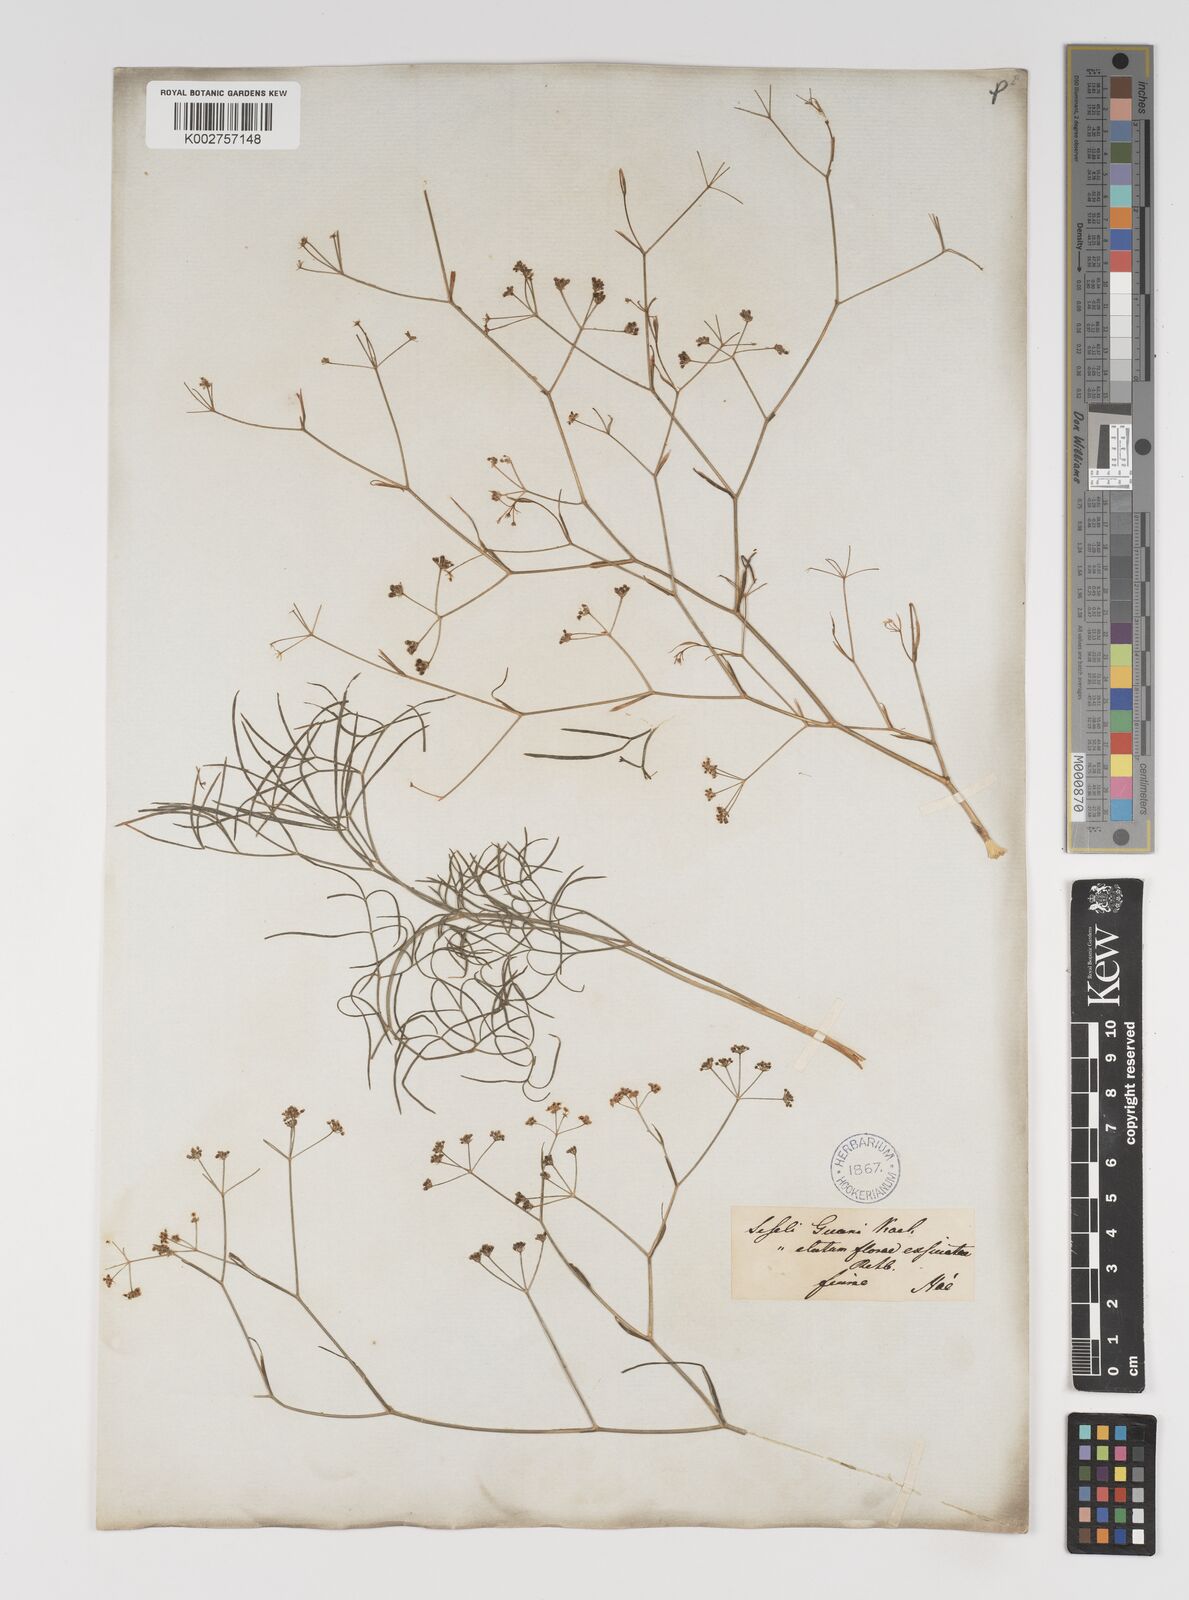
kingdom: Plantae
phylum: Tracheophyta
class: Magnoliopsida
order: Apiales
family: Apiaceae
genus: Seseli
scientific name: Seseli longifolium
